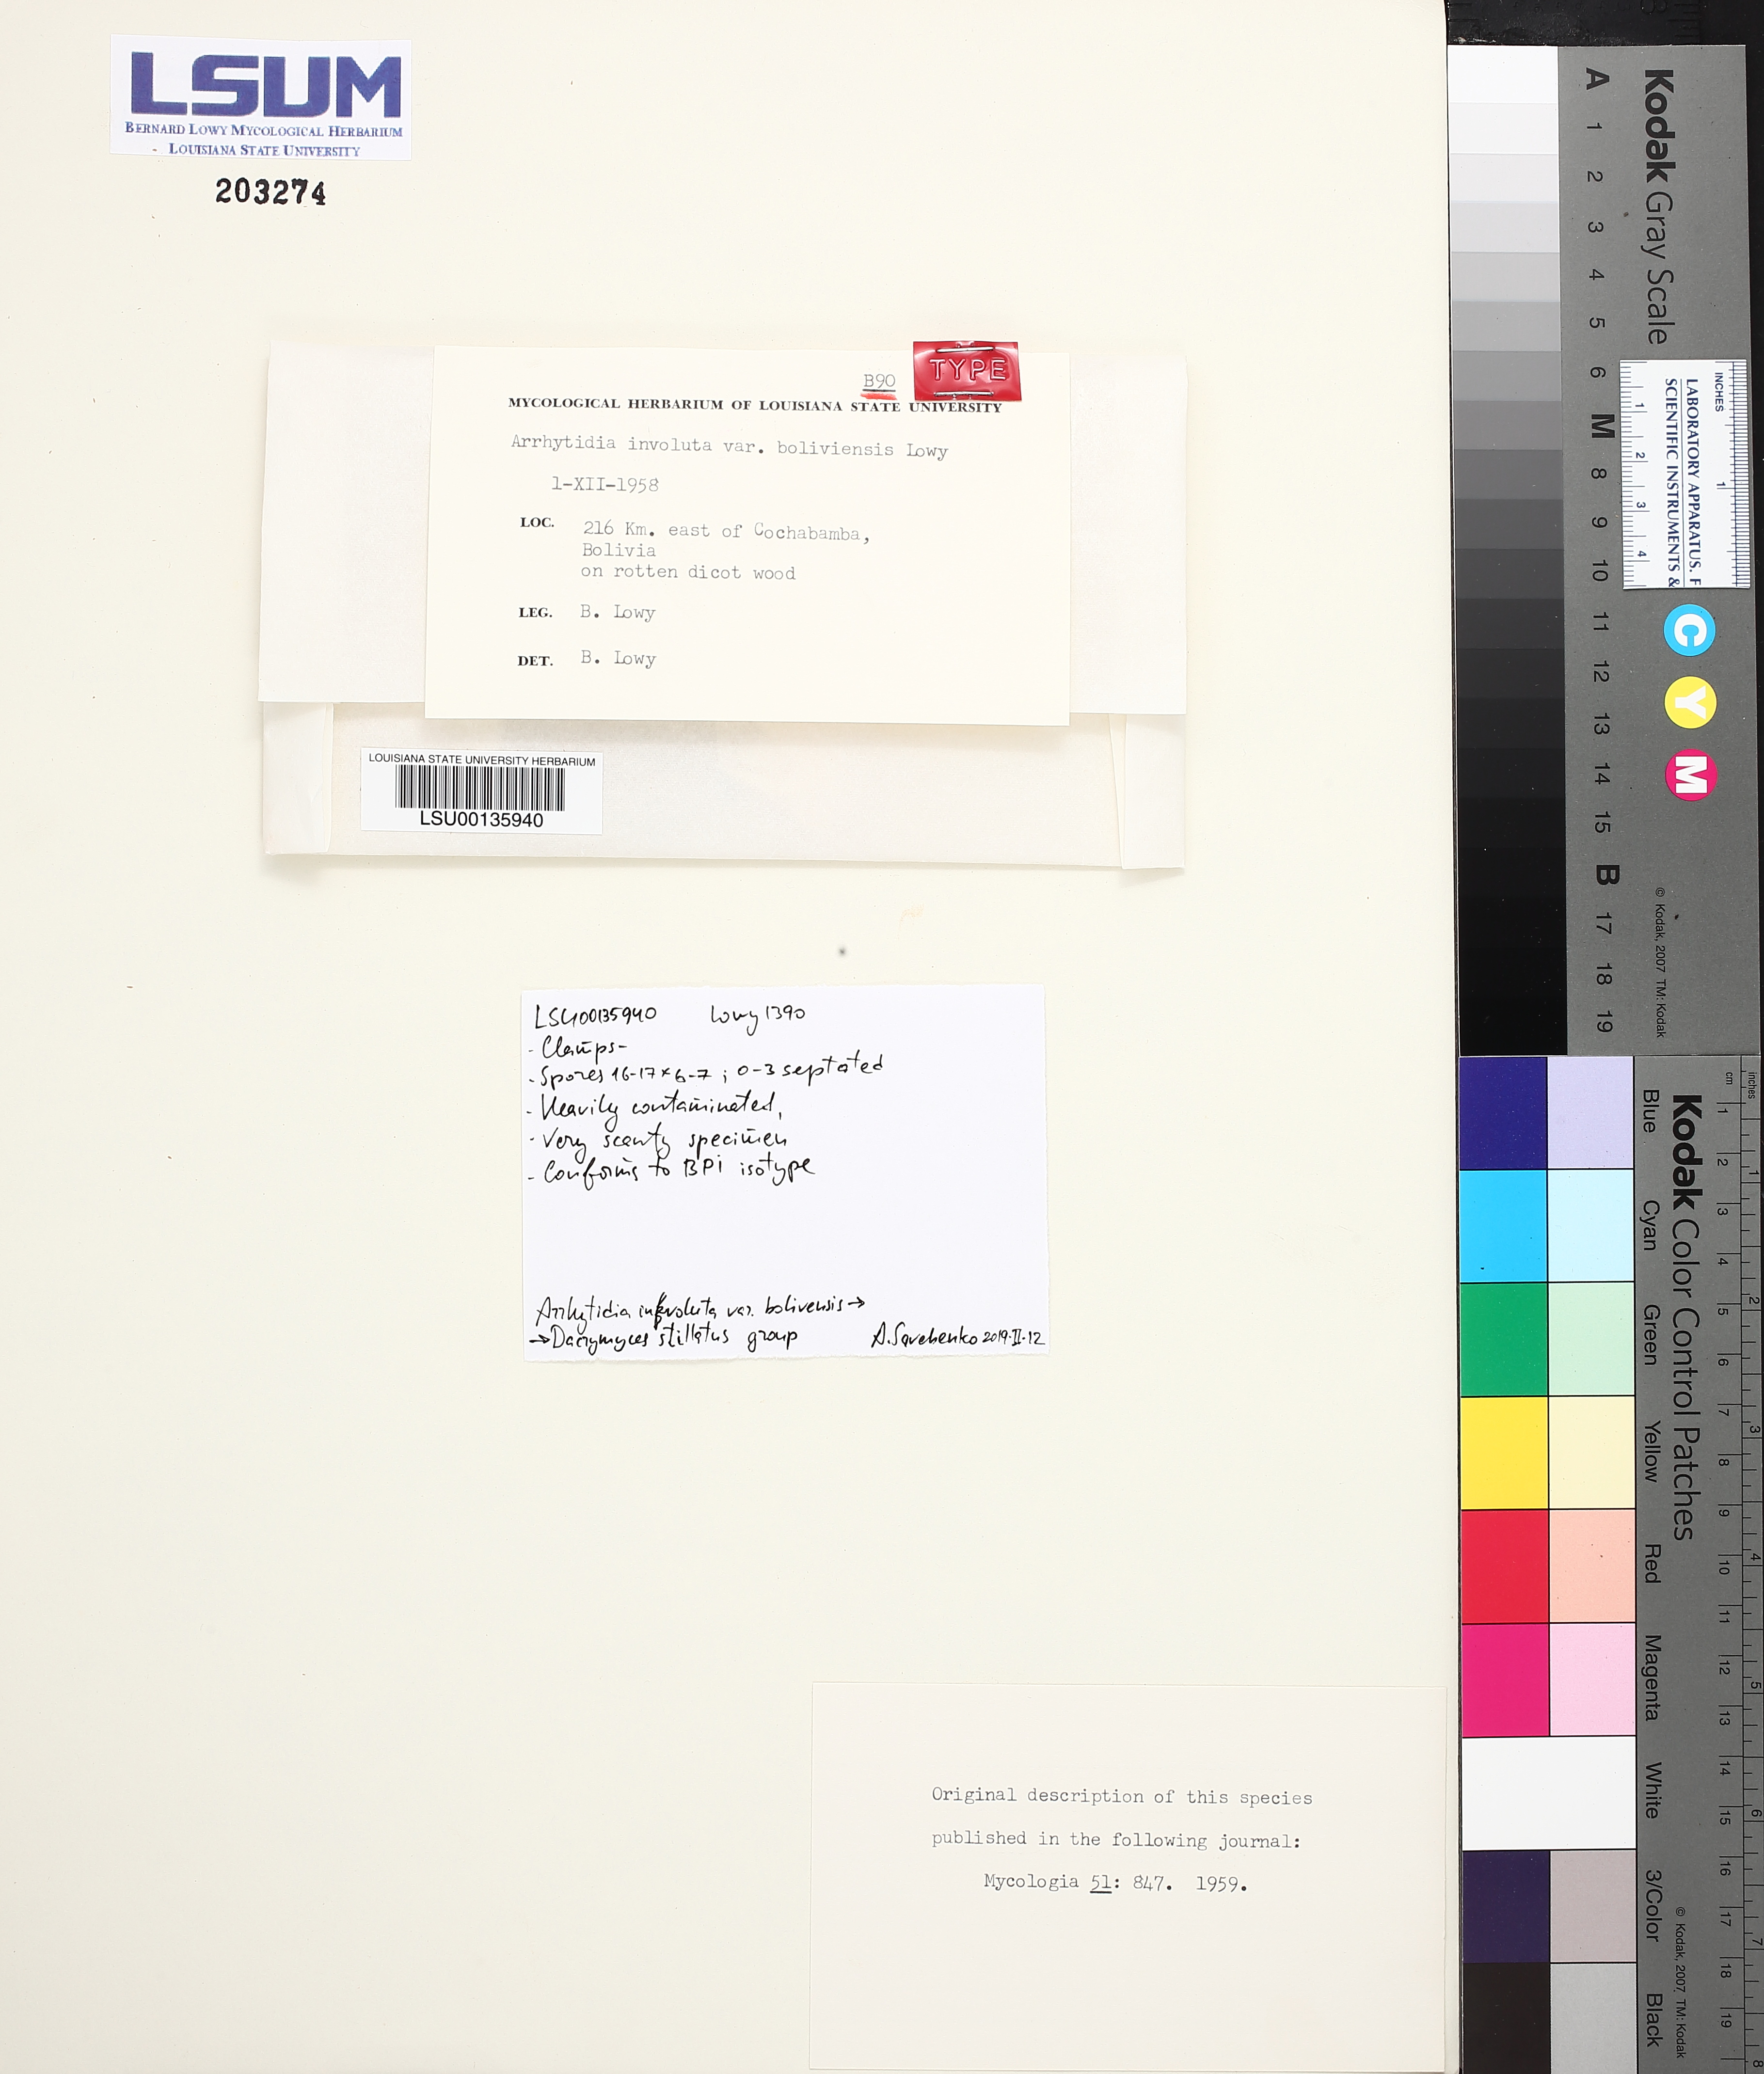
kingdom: Fungi
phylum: Basidiomycota
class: Dacrymycetes
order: Dacrymycetales
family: Dacrymycetaceae
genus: Dacrymyces
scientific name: Dacrymyces stillatus
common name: Common jelly spot
